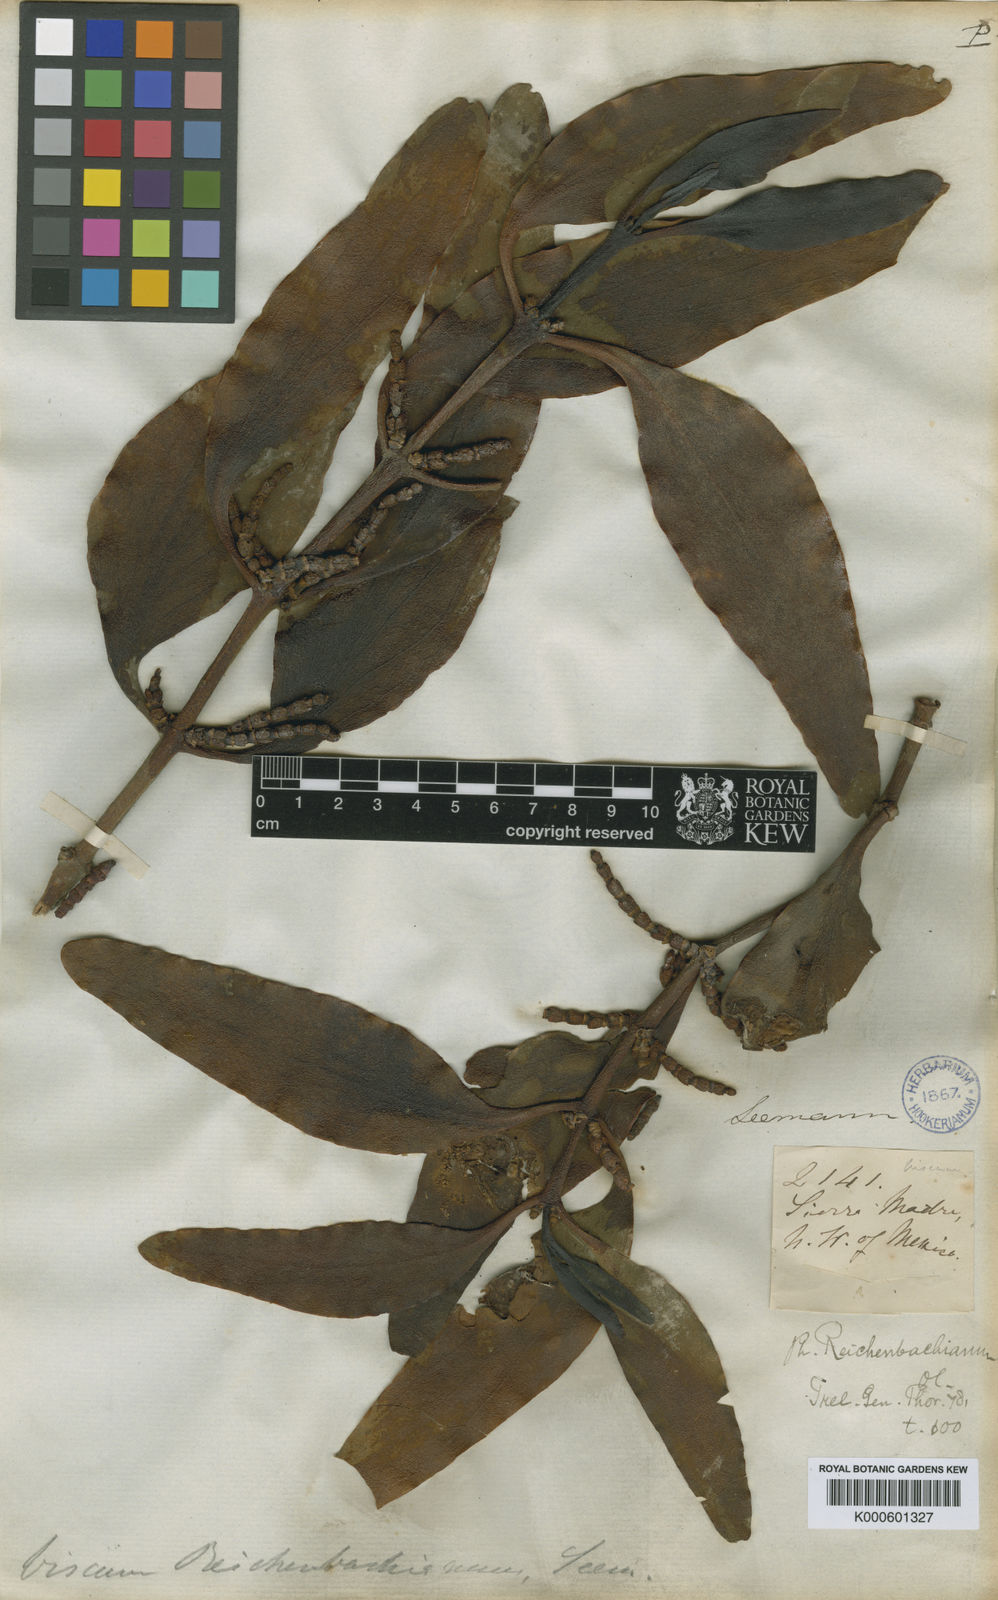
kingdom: Plantae
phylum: Tracheophyta
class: Magnoliopsida
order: Santalales
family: Viscaceae
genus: Phoradendron
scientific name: Phoradendron reichenbachianum
